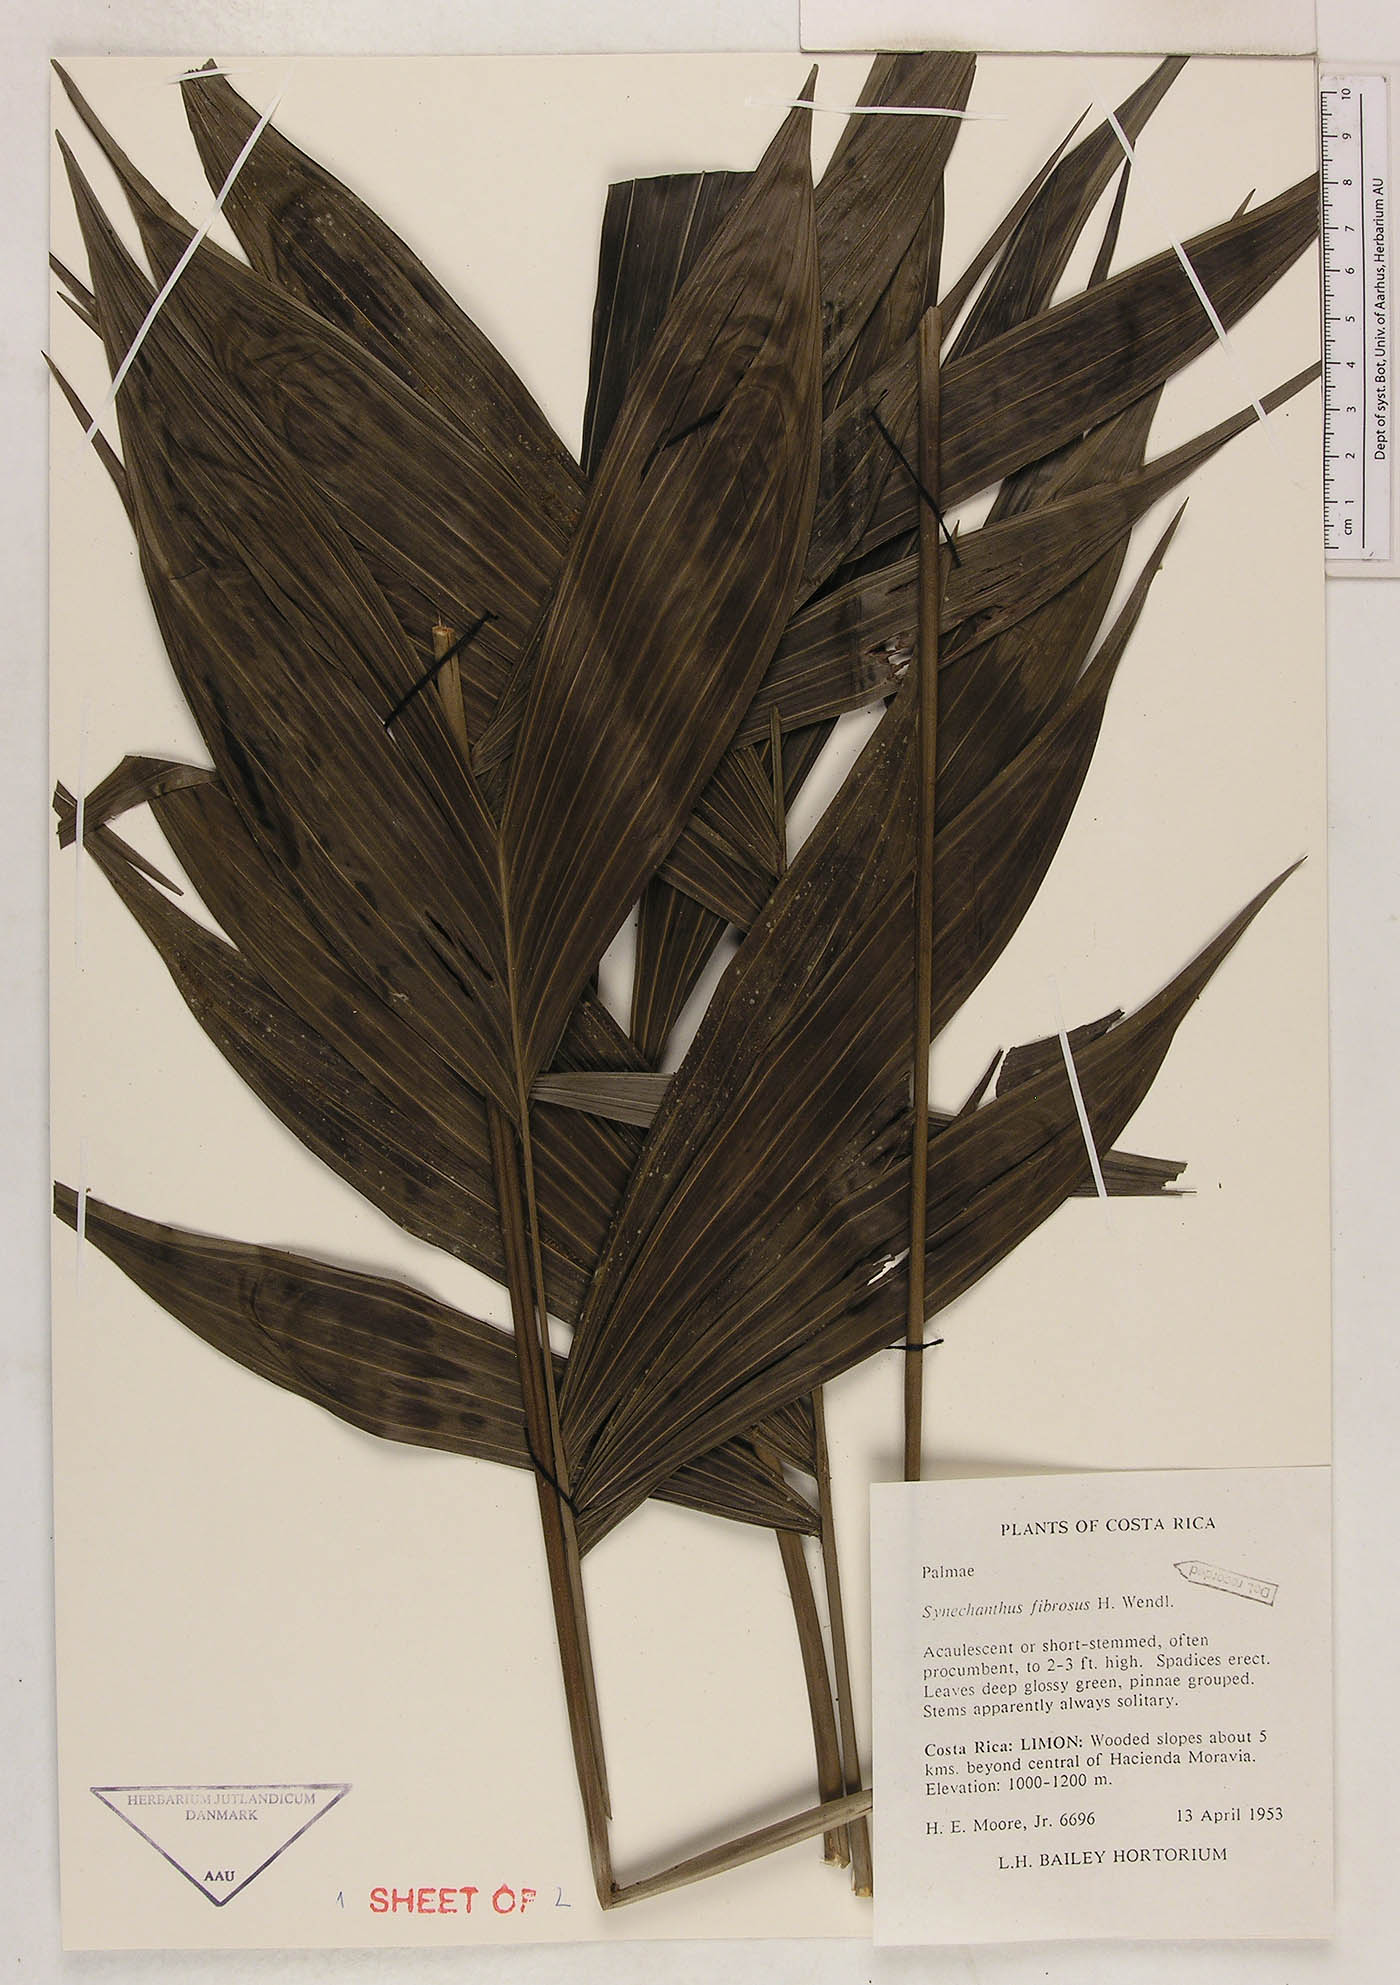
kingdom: Plantae
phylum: Tracheophyta
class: Liliopsida
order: Arecales
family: Arecaceae
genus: Synechanthus
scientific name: Synechanthus fibrosus
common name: Jellybean palm
